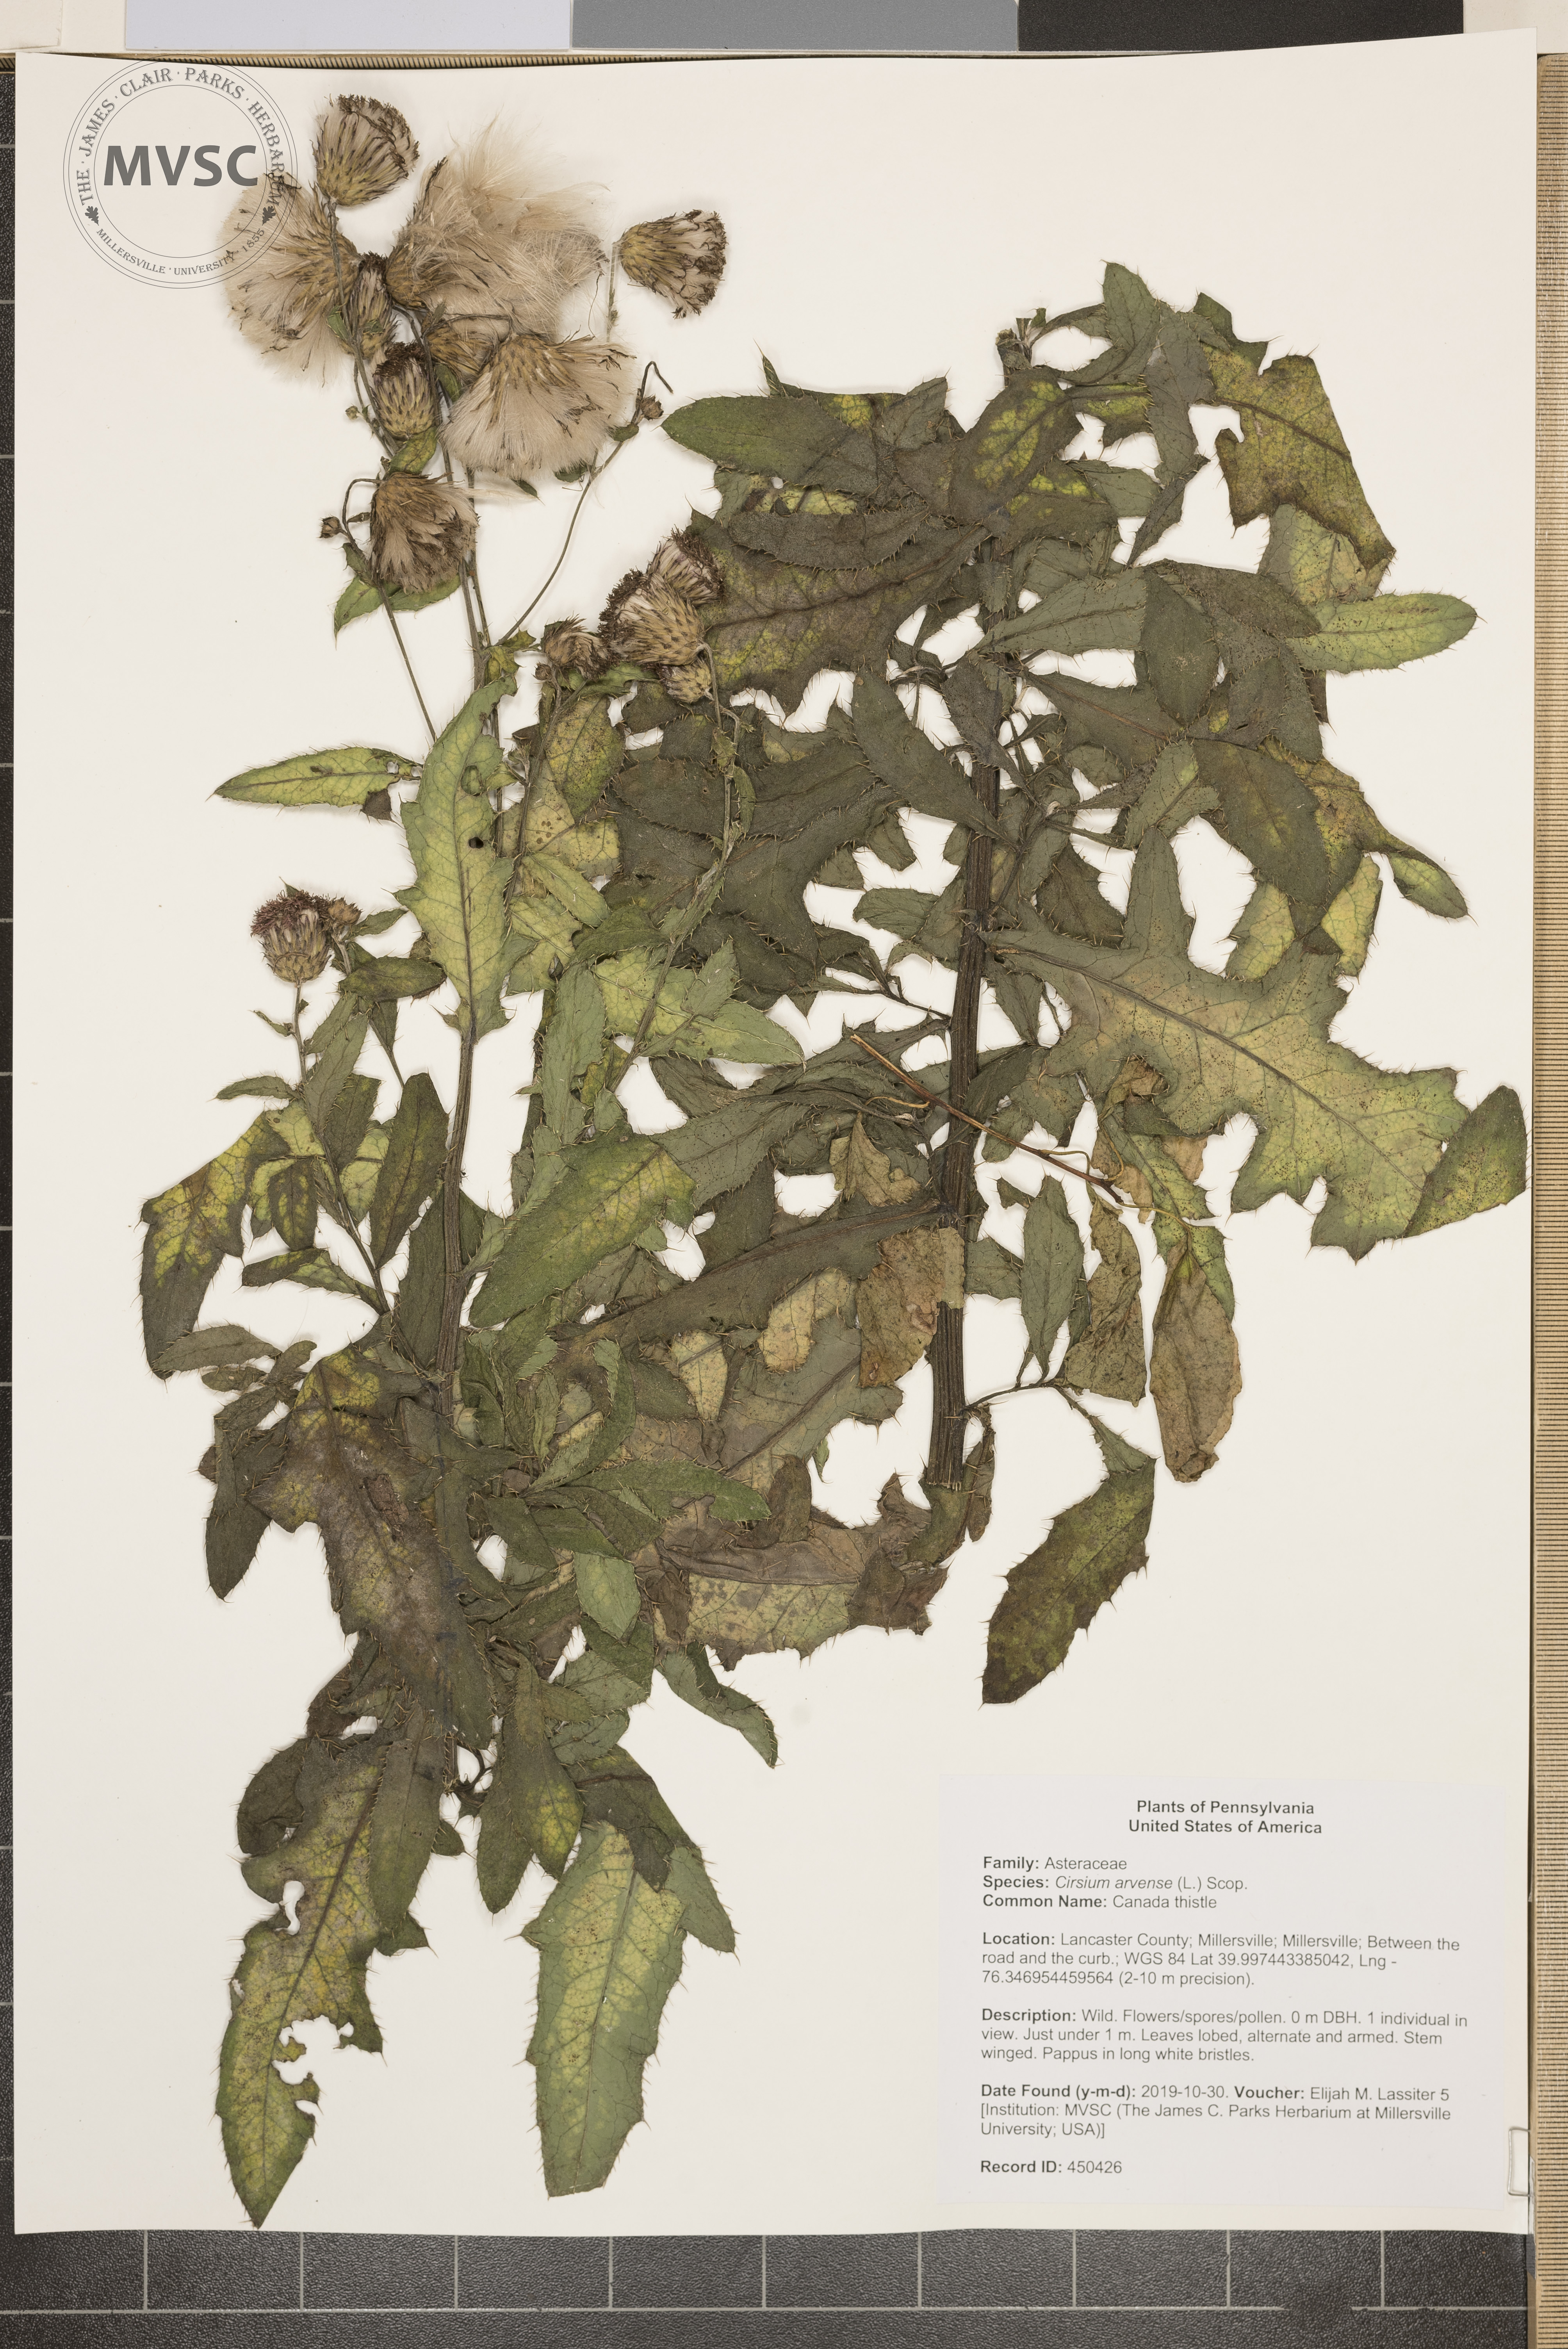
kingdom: Plantae
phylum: Tracheophyta
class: Magnoliopsida
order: Asterales
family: Asteraceae
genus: Cirsium
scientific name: Cirsium arvense
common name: Canada thistle
